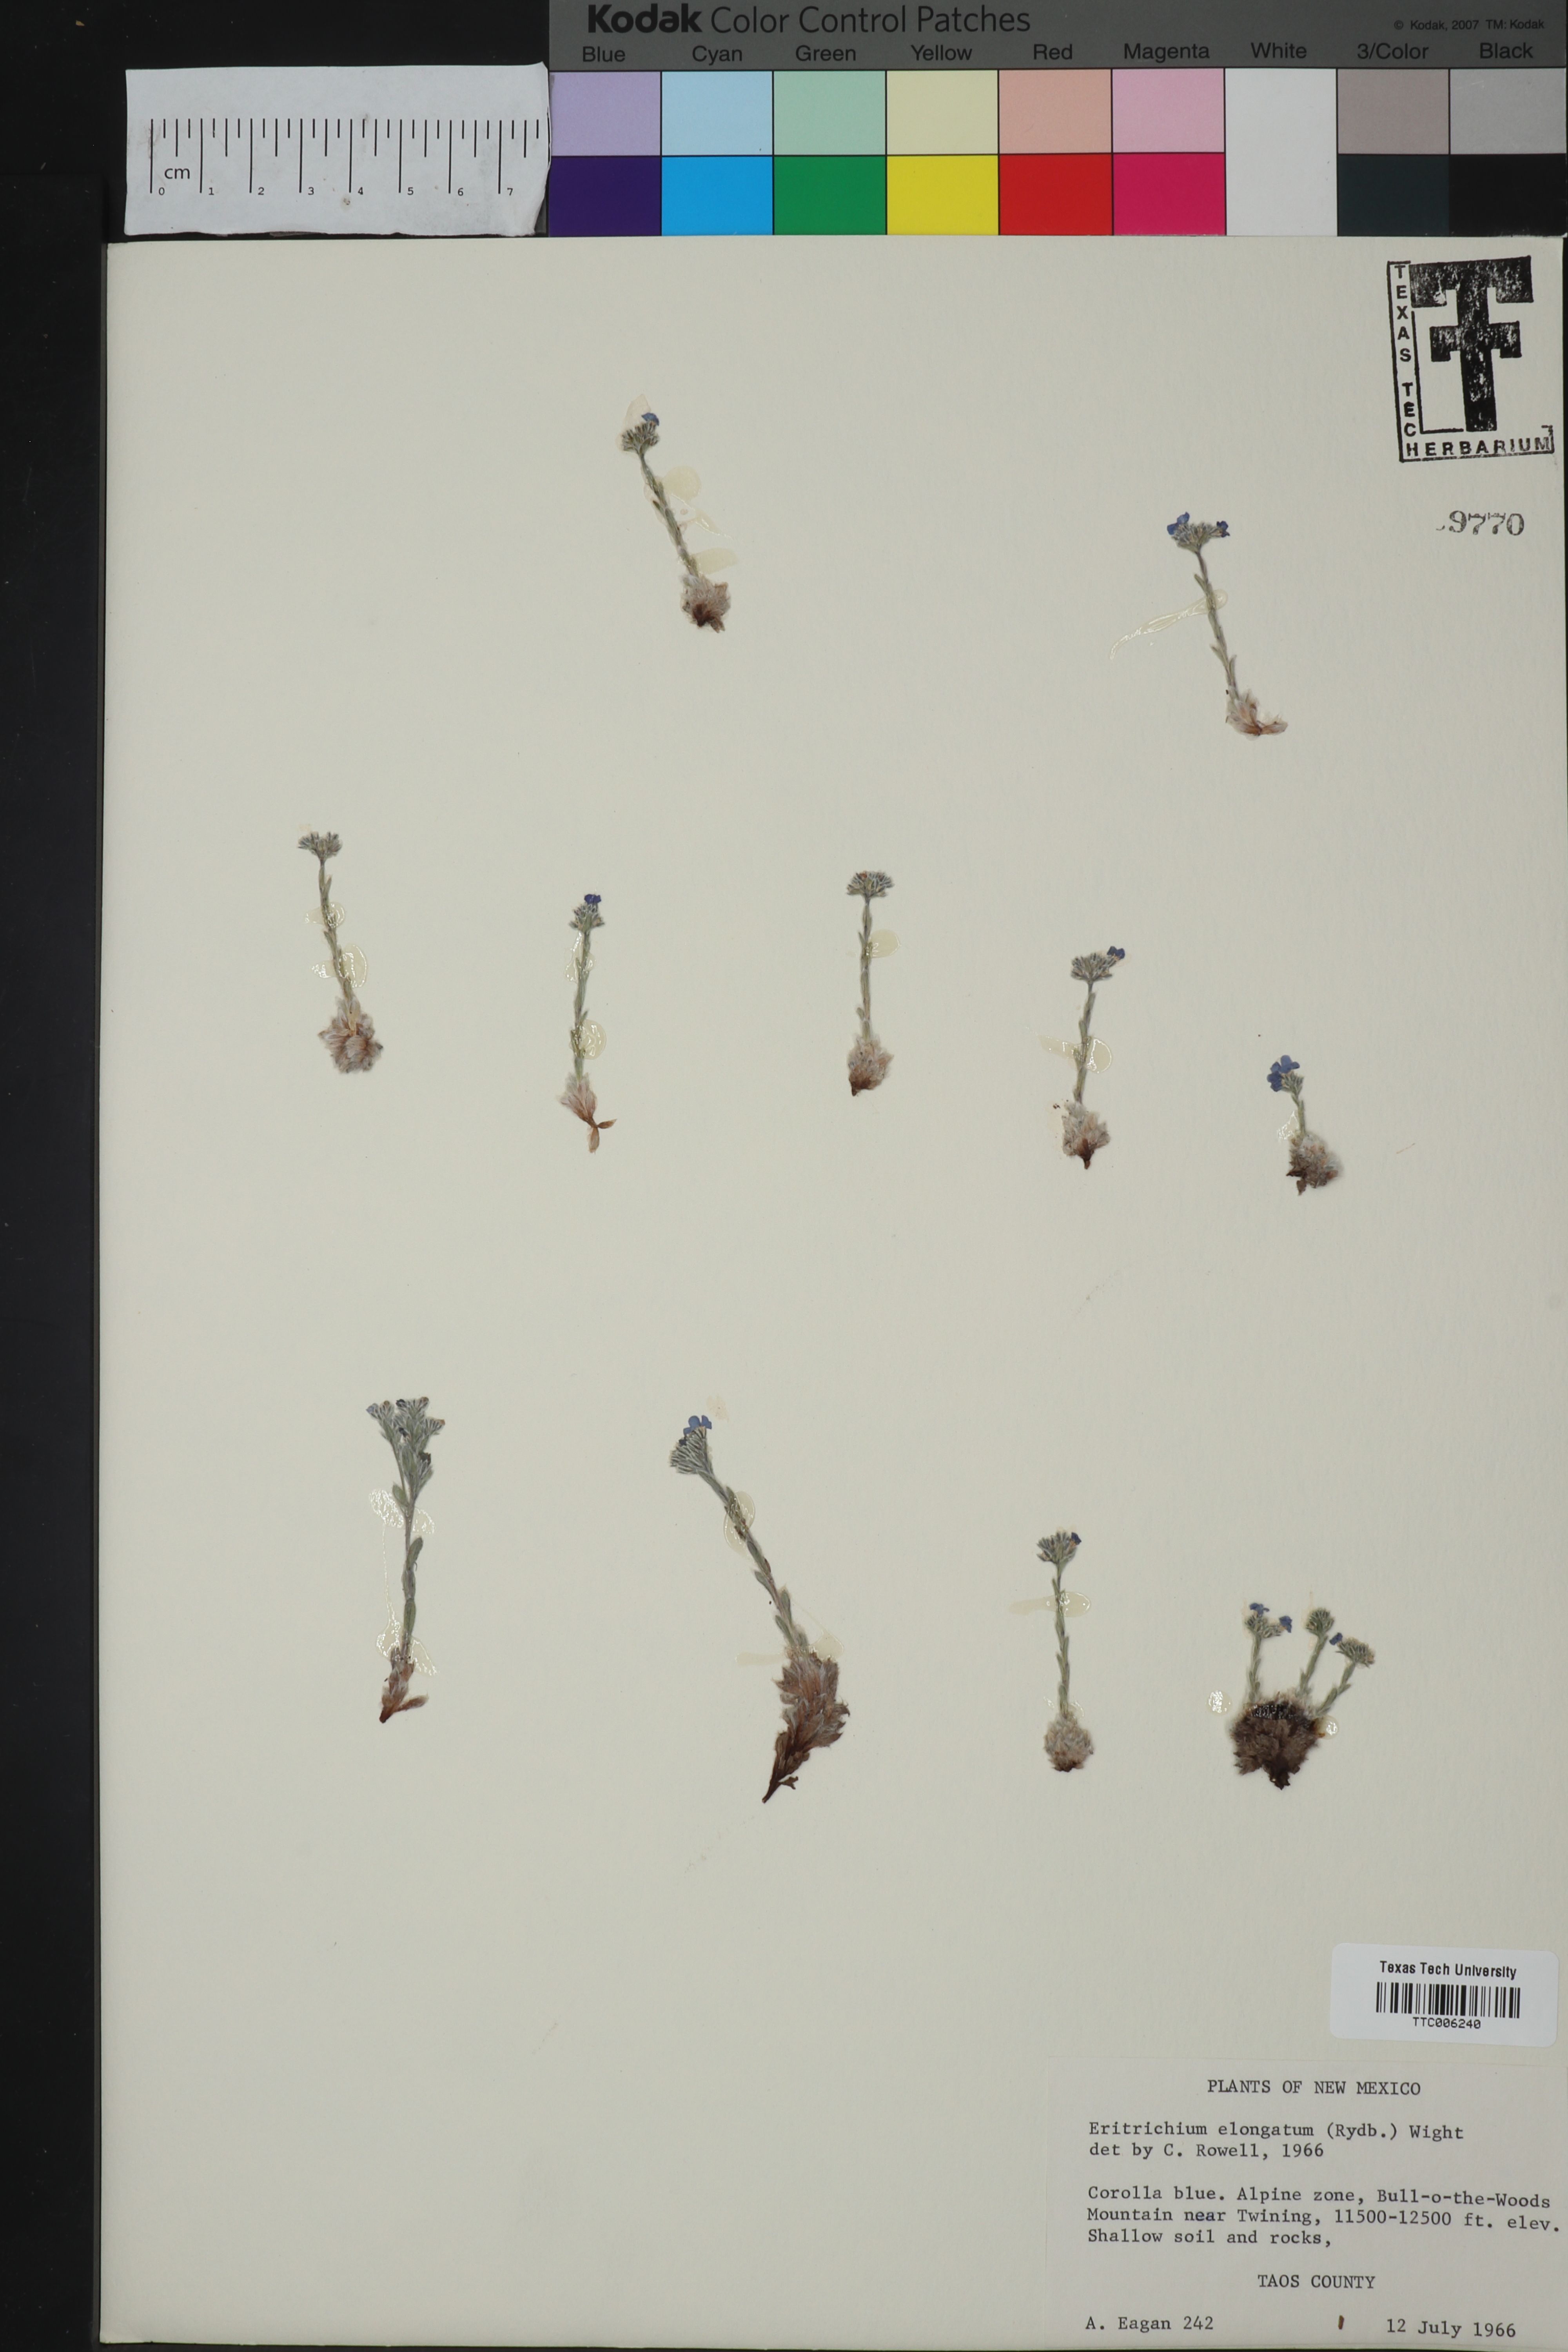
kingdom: Plantae
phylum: Tracheophyta
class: Magnoliopsida
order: Boraginales
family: Boraginaceae
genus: Eritrichium
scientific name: Eritrichium argenteum
